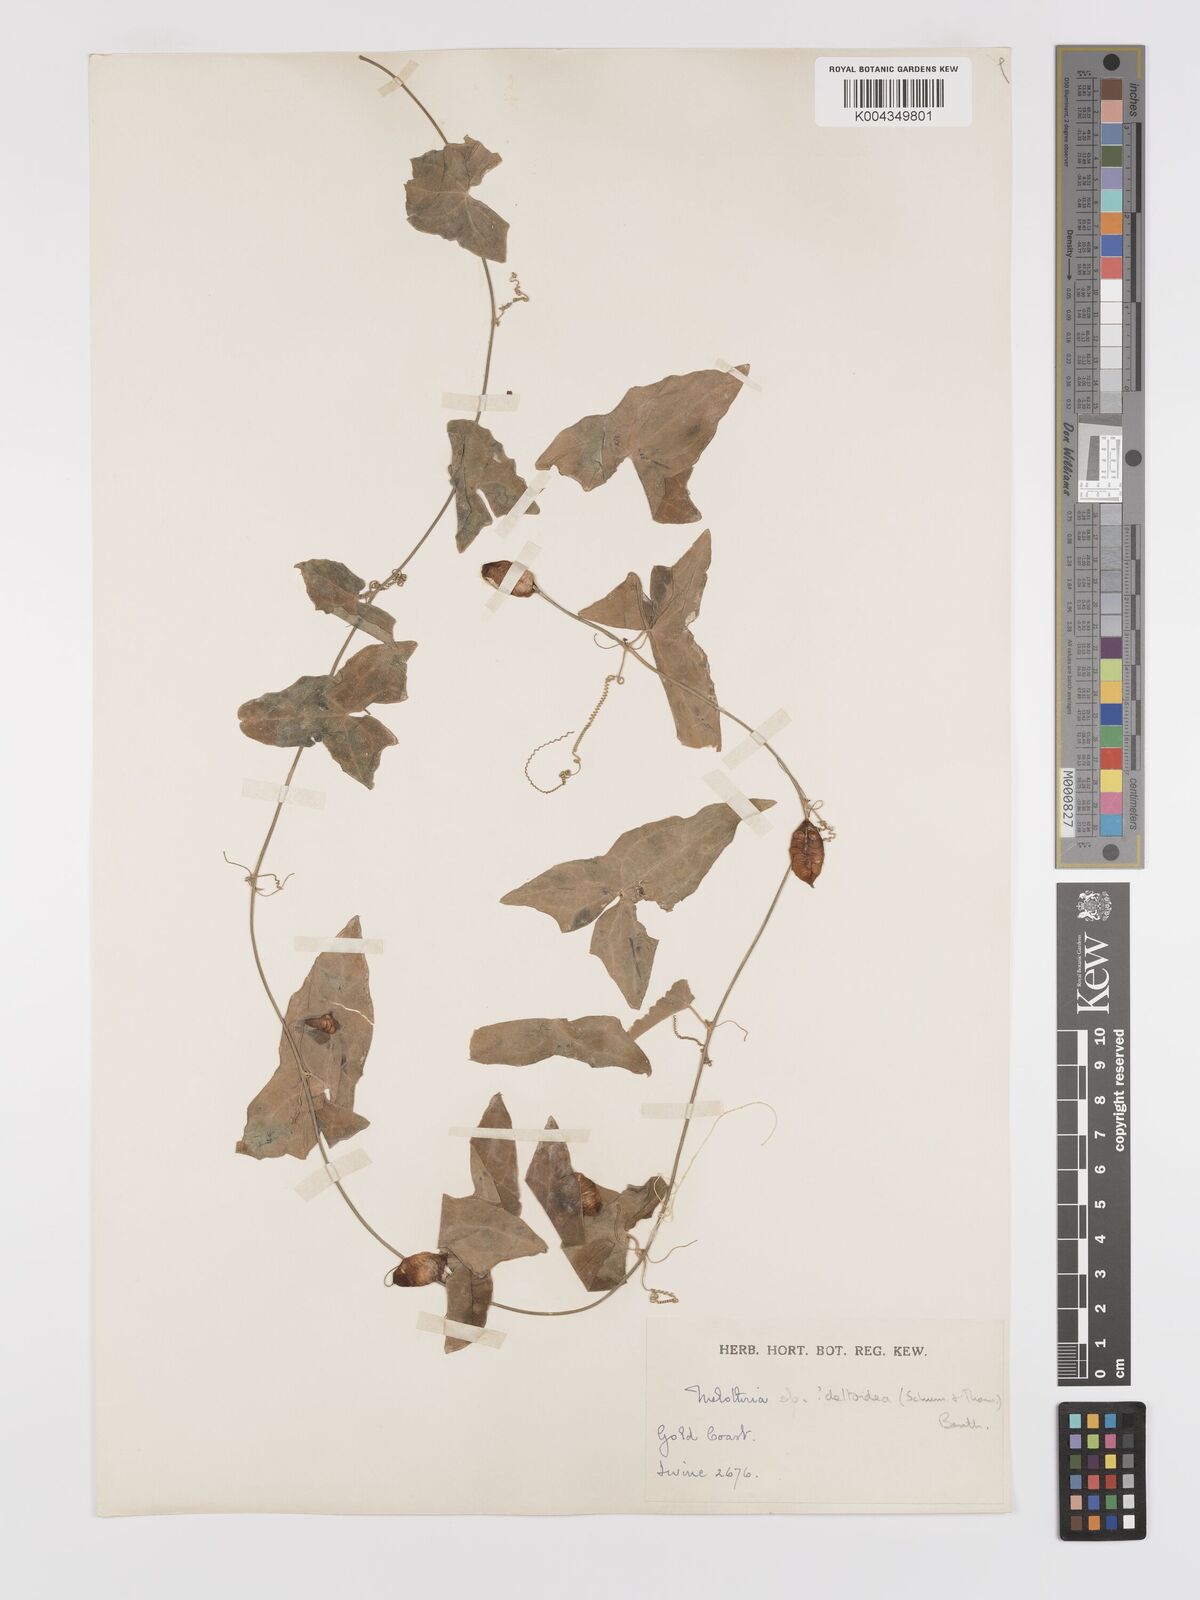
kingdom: Plantae
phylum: Tracheophyta
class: Magnoliopsida
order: Cucurbitales
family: Cucurbitaceae
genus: Zehneria
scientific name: Zehneria hallii
